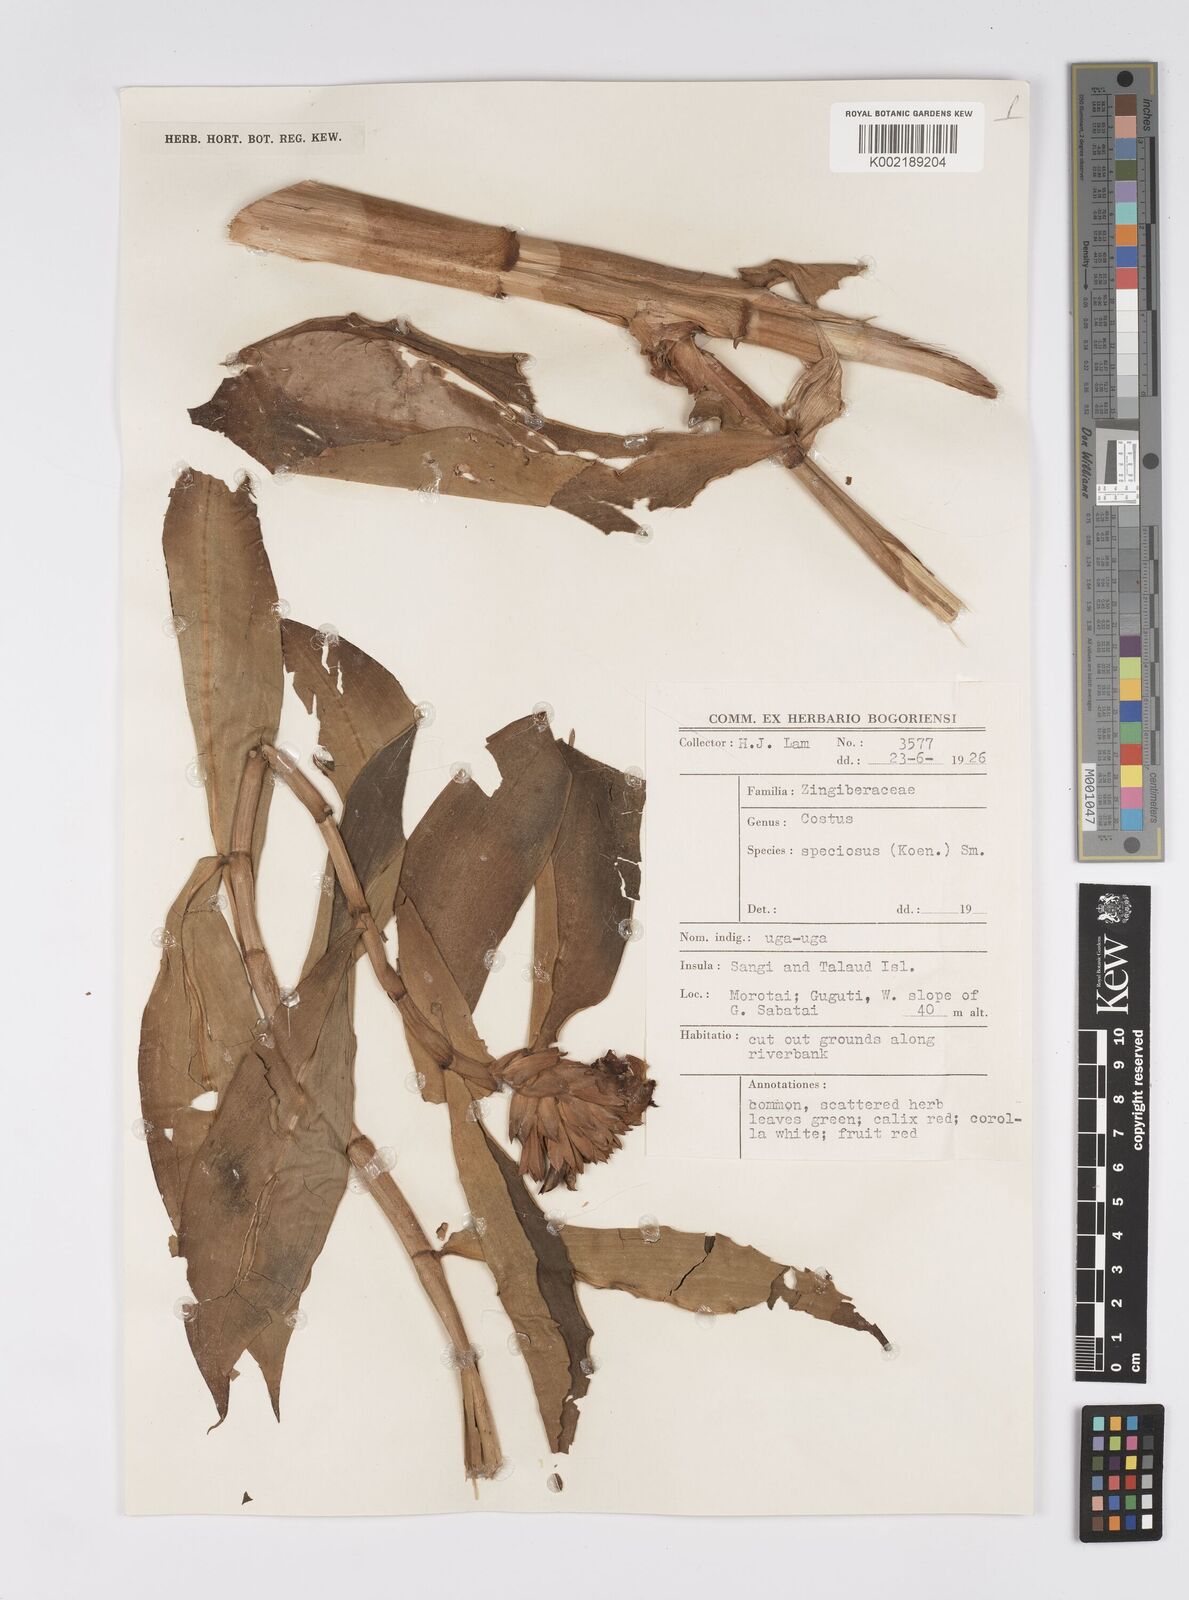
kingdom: Plantae
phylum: Tracheophyta
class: Liliopsida
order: Zingiberales
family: Costaceae
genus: Hellenia
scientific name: Hellenia speciosa
